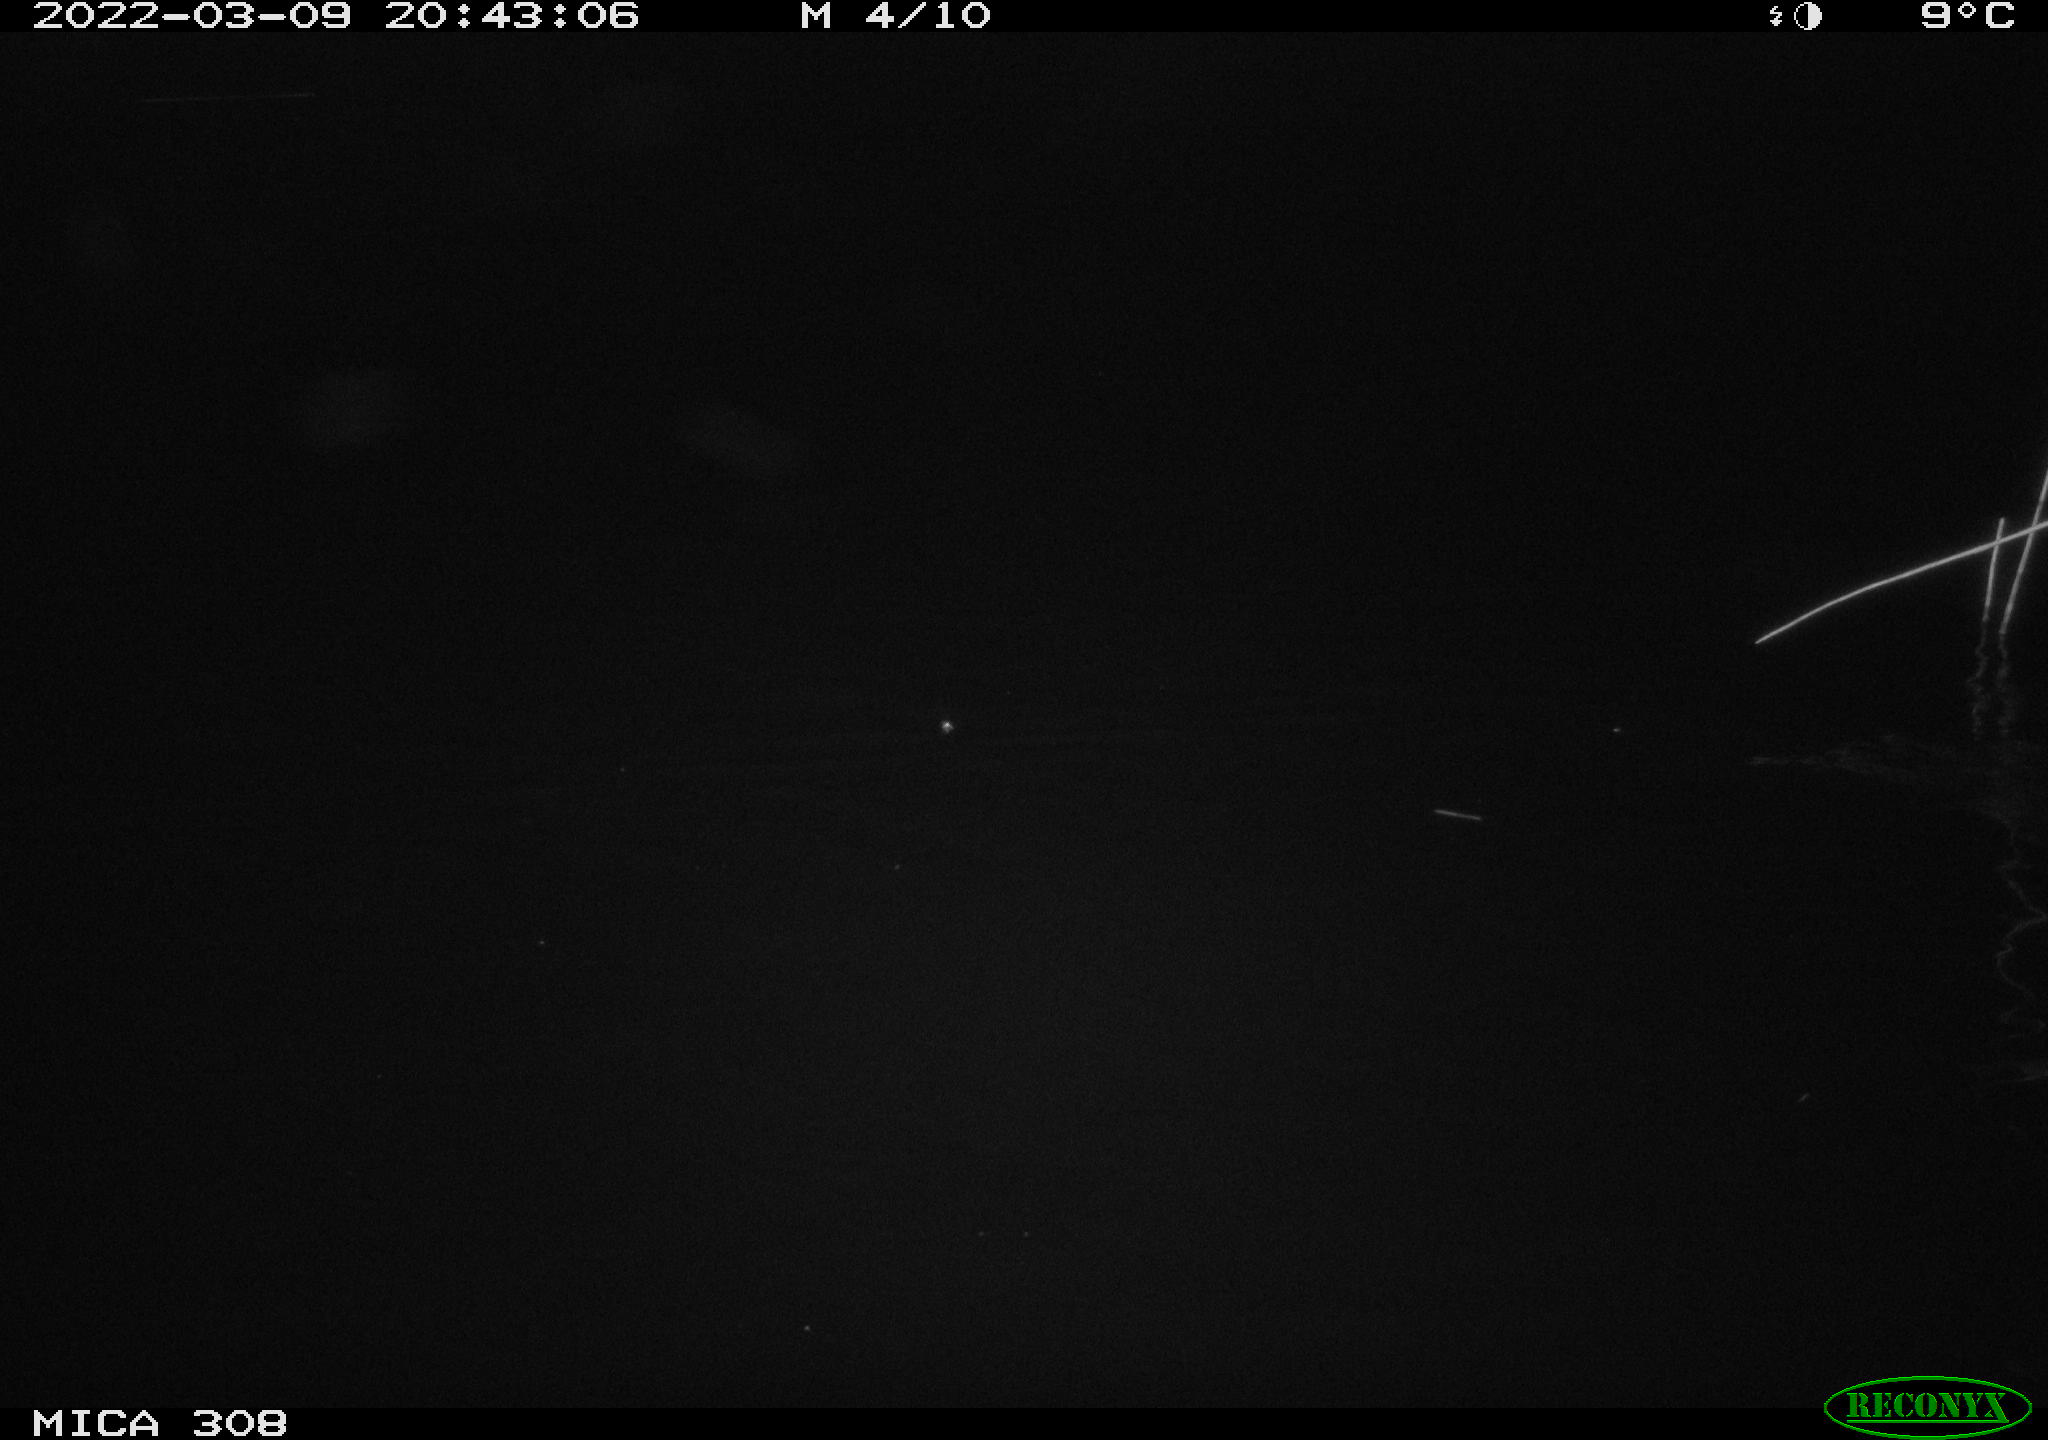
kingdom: Animalia
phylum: Chordata
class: Mammalia
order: Rodentia
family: Cricetidae
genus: Ondatra
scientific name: Ondatra zibethicus
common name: Muskrat
